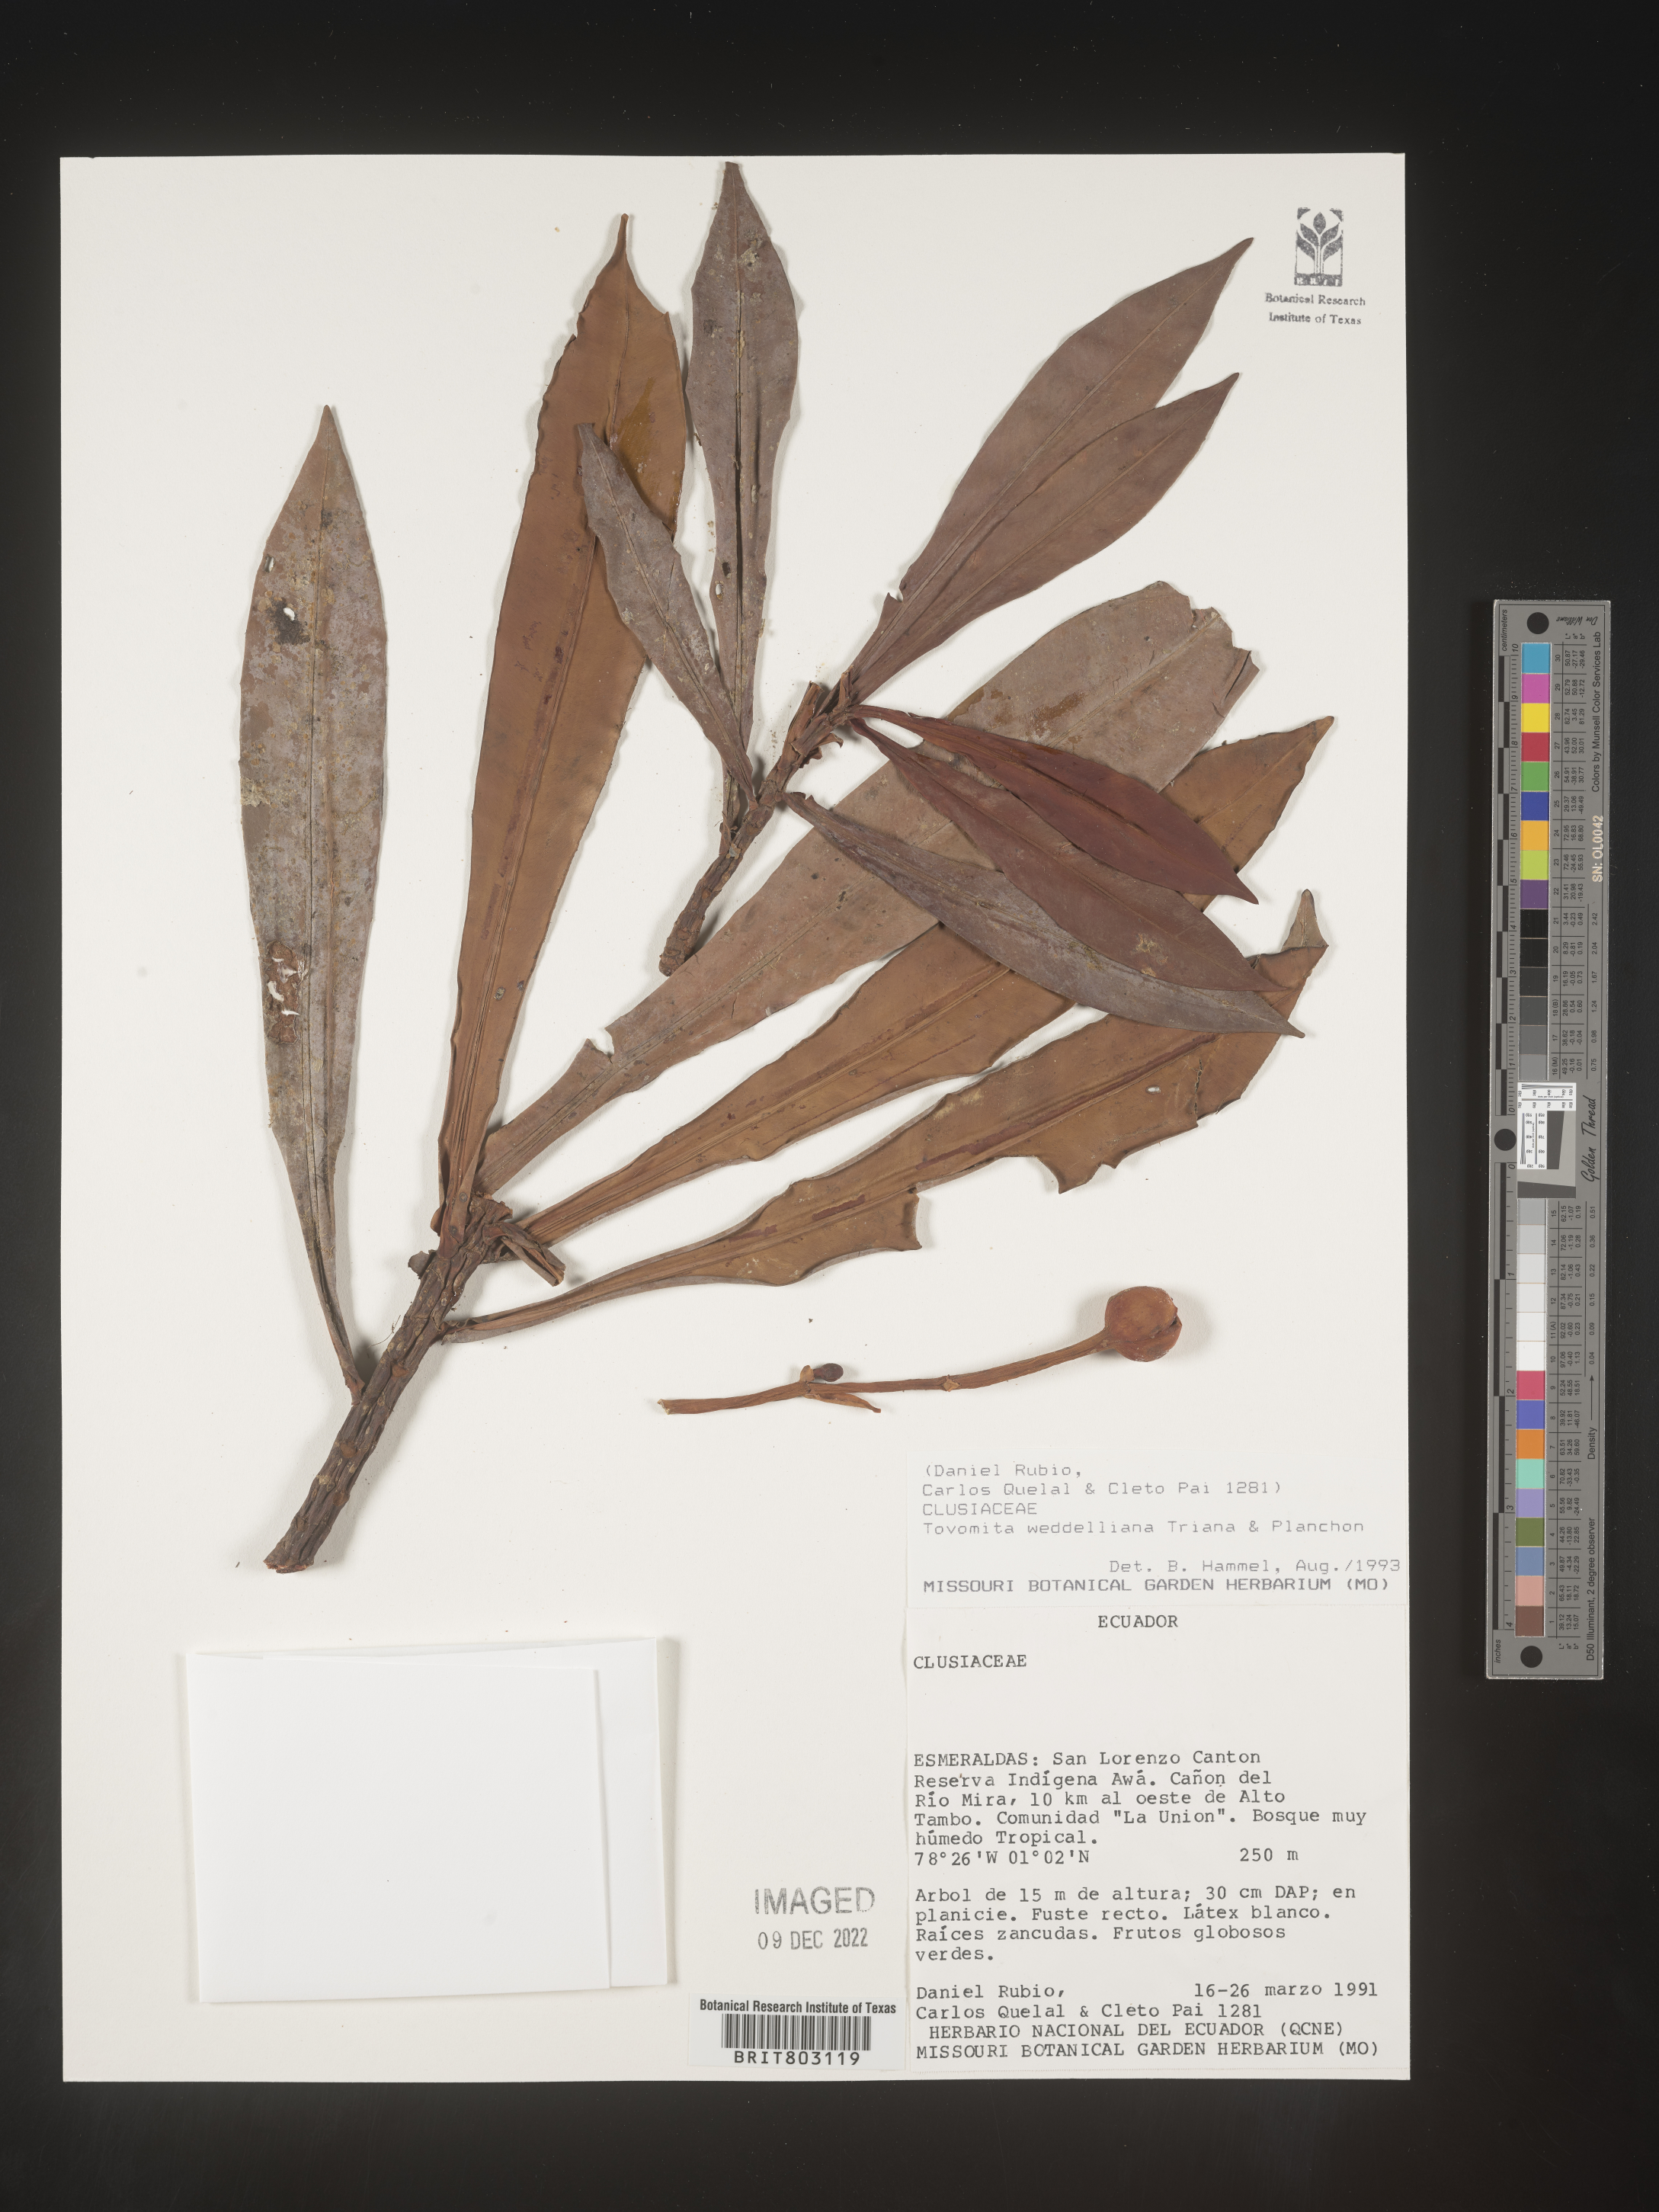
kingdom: Plantae
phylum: Tracheophyta
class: Magnoliopsida
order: Malpighiales
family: Clusiaceae
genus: Arawakia
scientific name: Arawakia weddelliana
